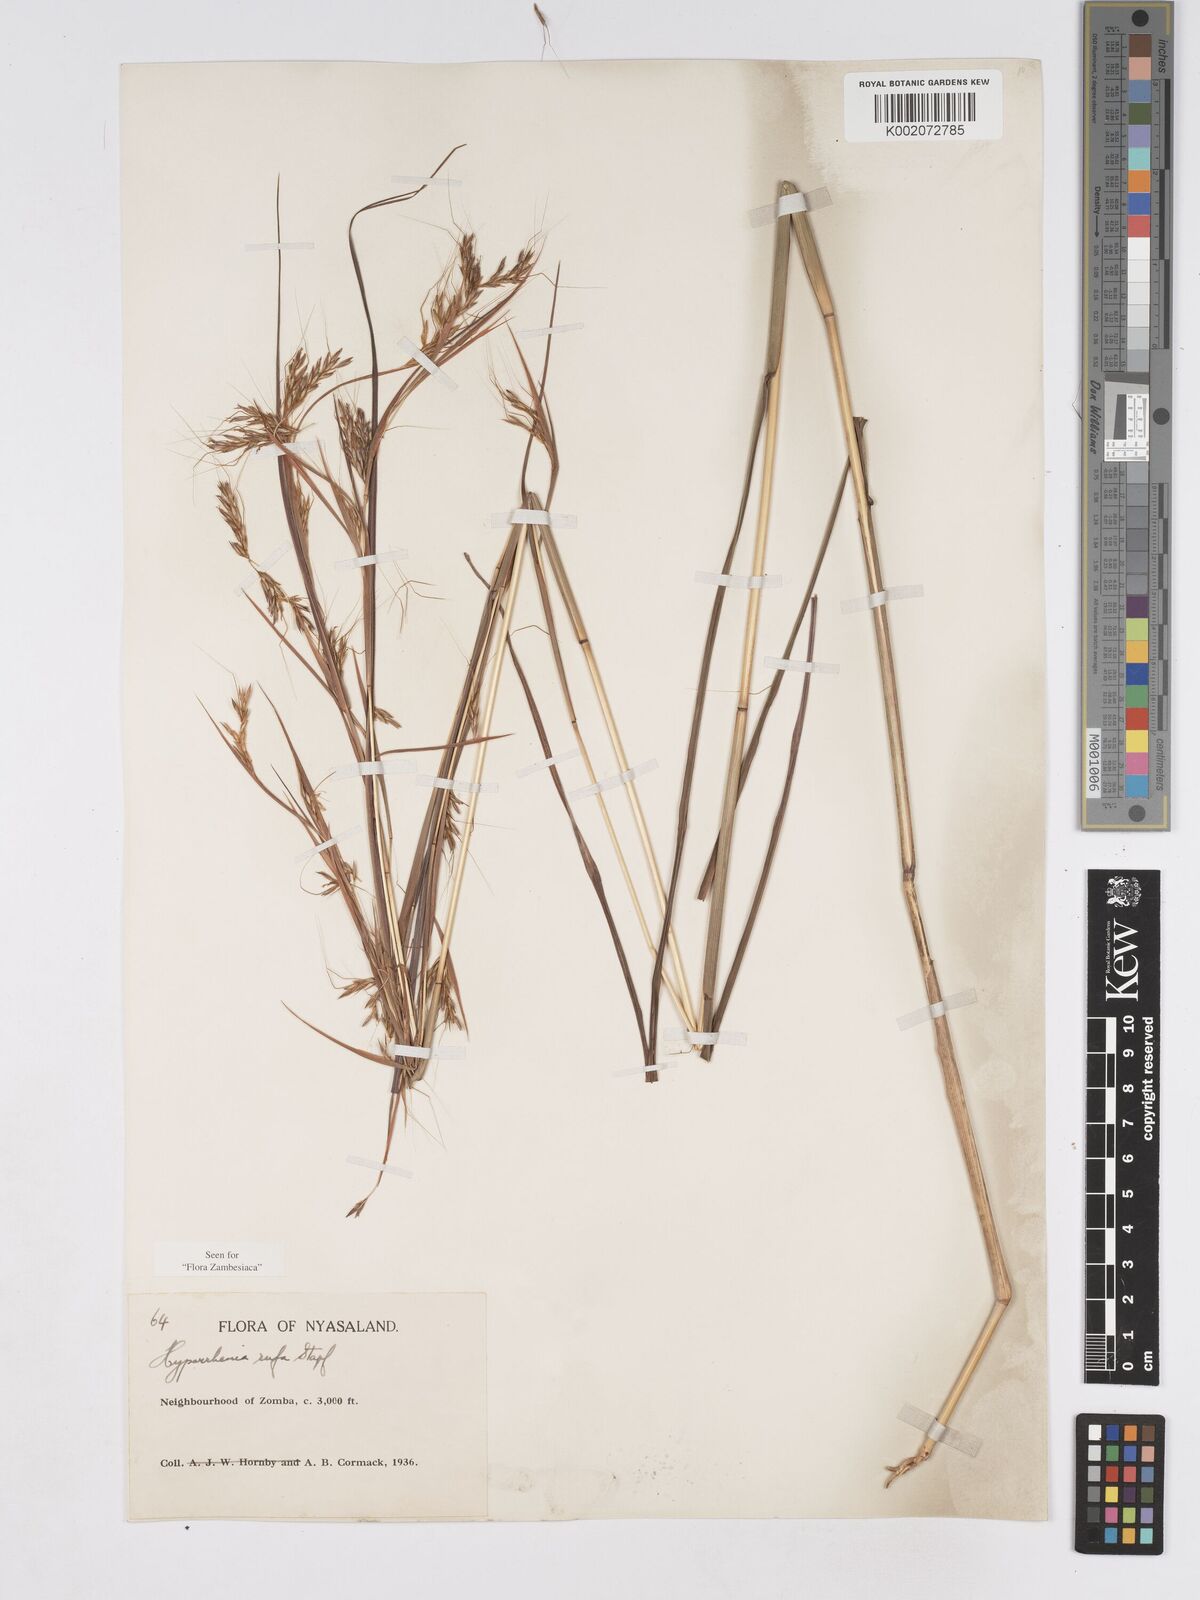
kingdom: Plantae
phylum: Tracheophyta
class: Liliopsida
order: Poales
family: Poaceae
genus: Hyparrhenia
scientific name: Hyparrhenia rufa
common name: Jaraguagrass
